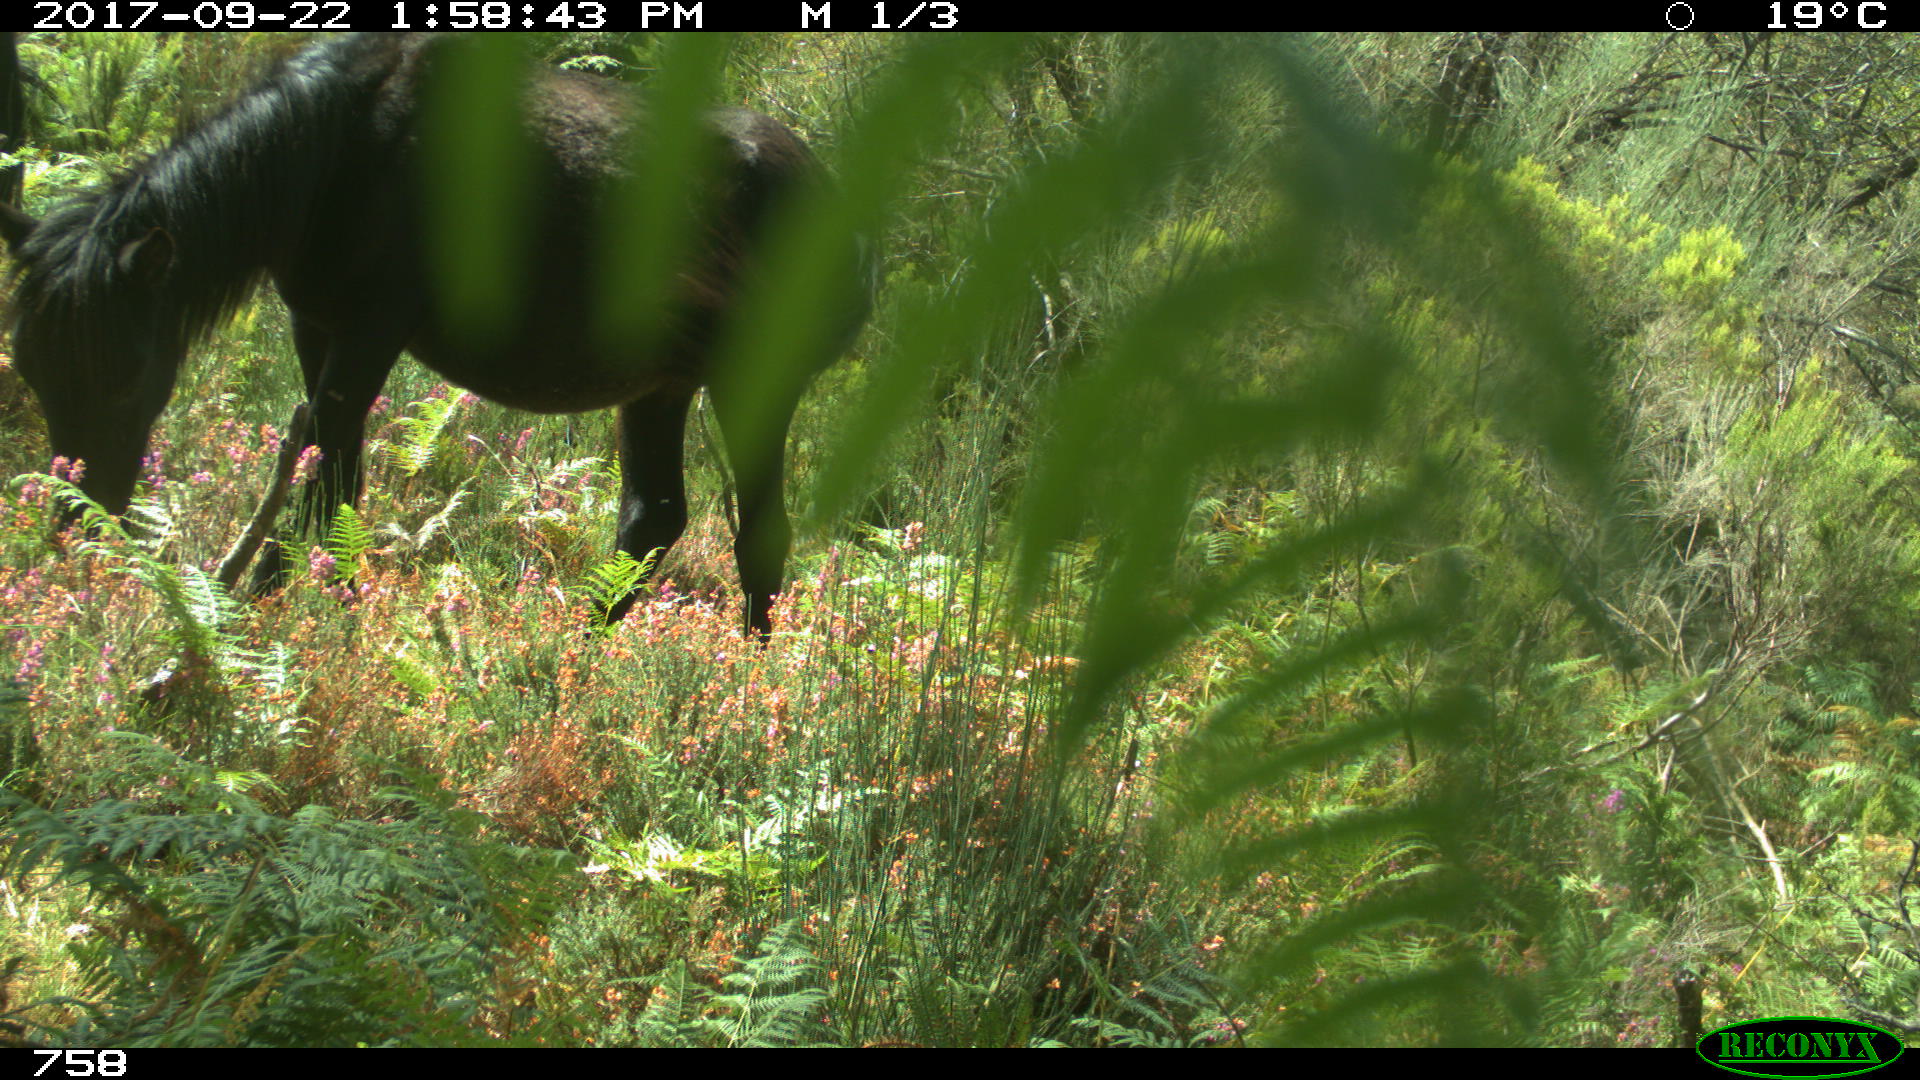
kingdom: Animalia
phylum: Chordata
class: Mammalia
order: Perissodactyla
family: Equidae
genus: Equus
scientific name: Equus caballus
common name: Horse
